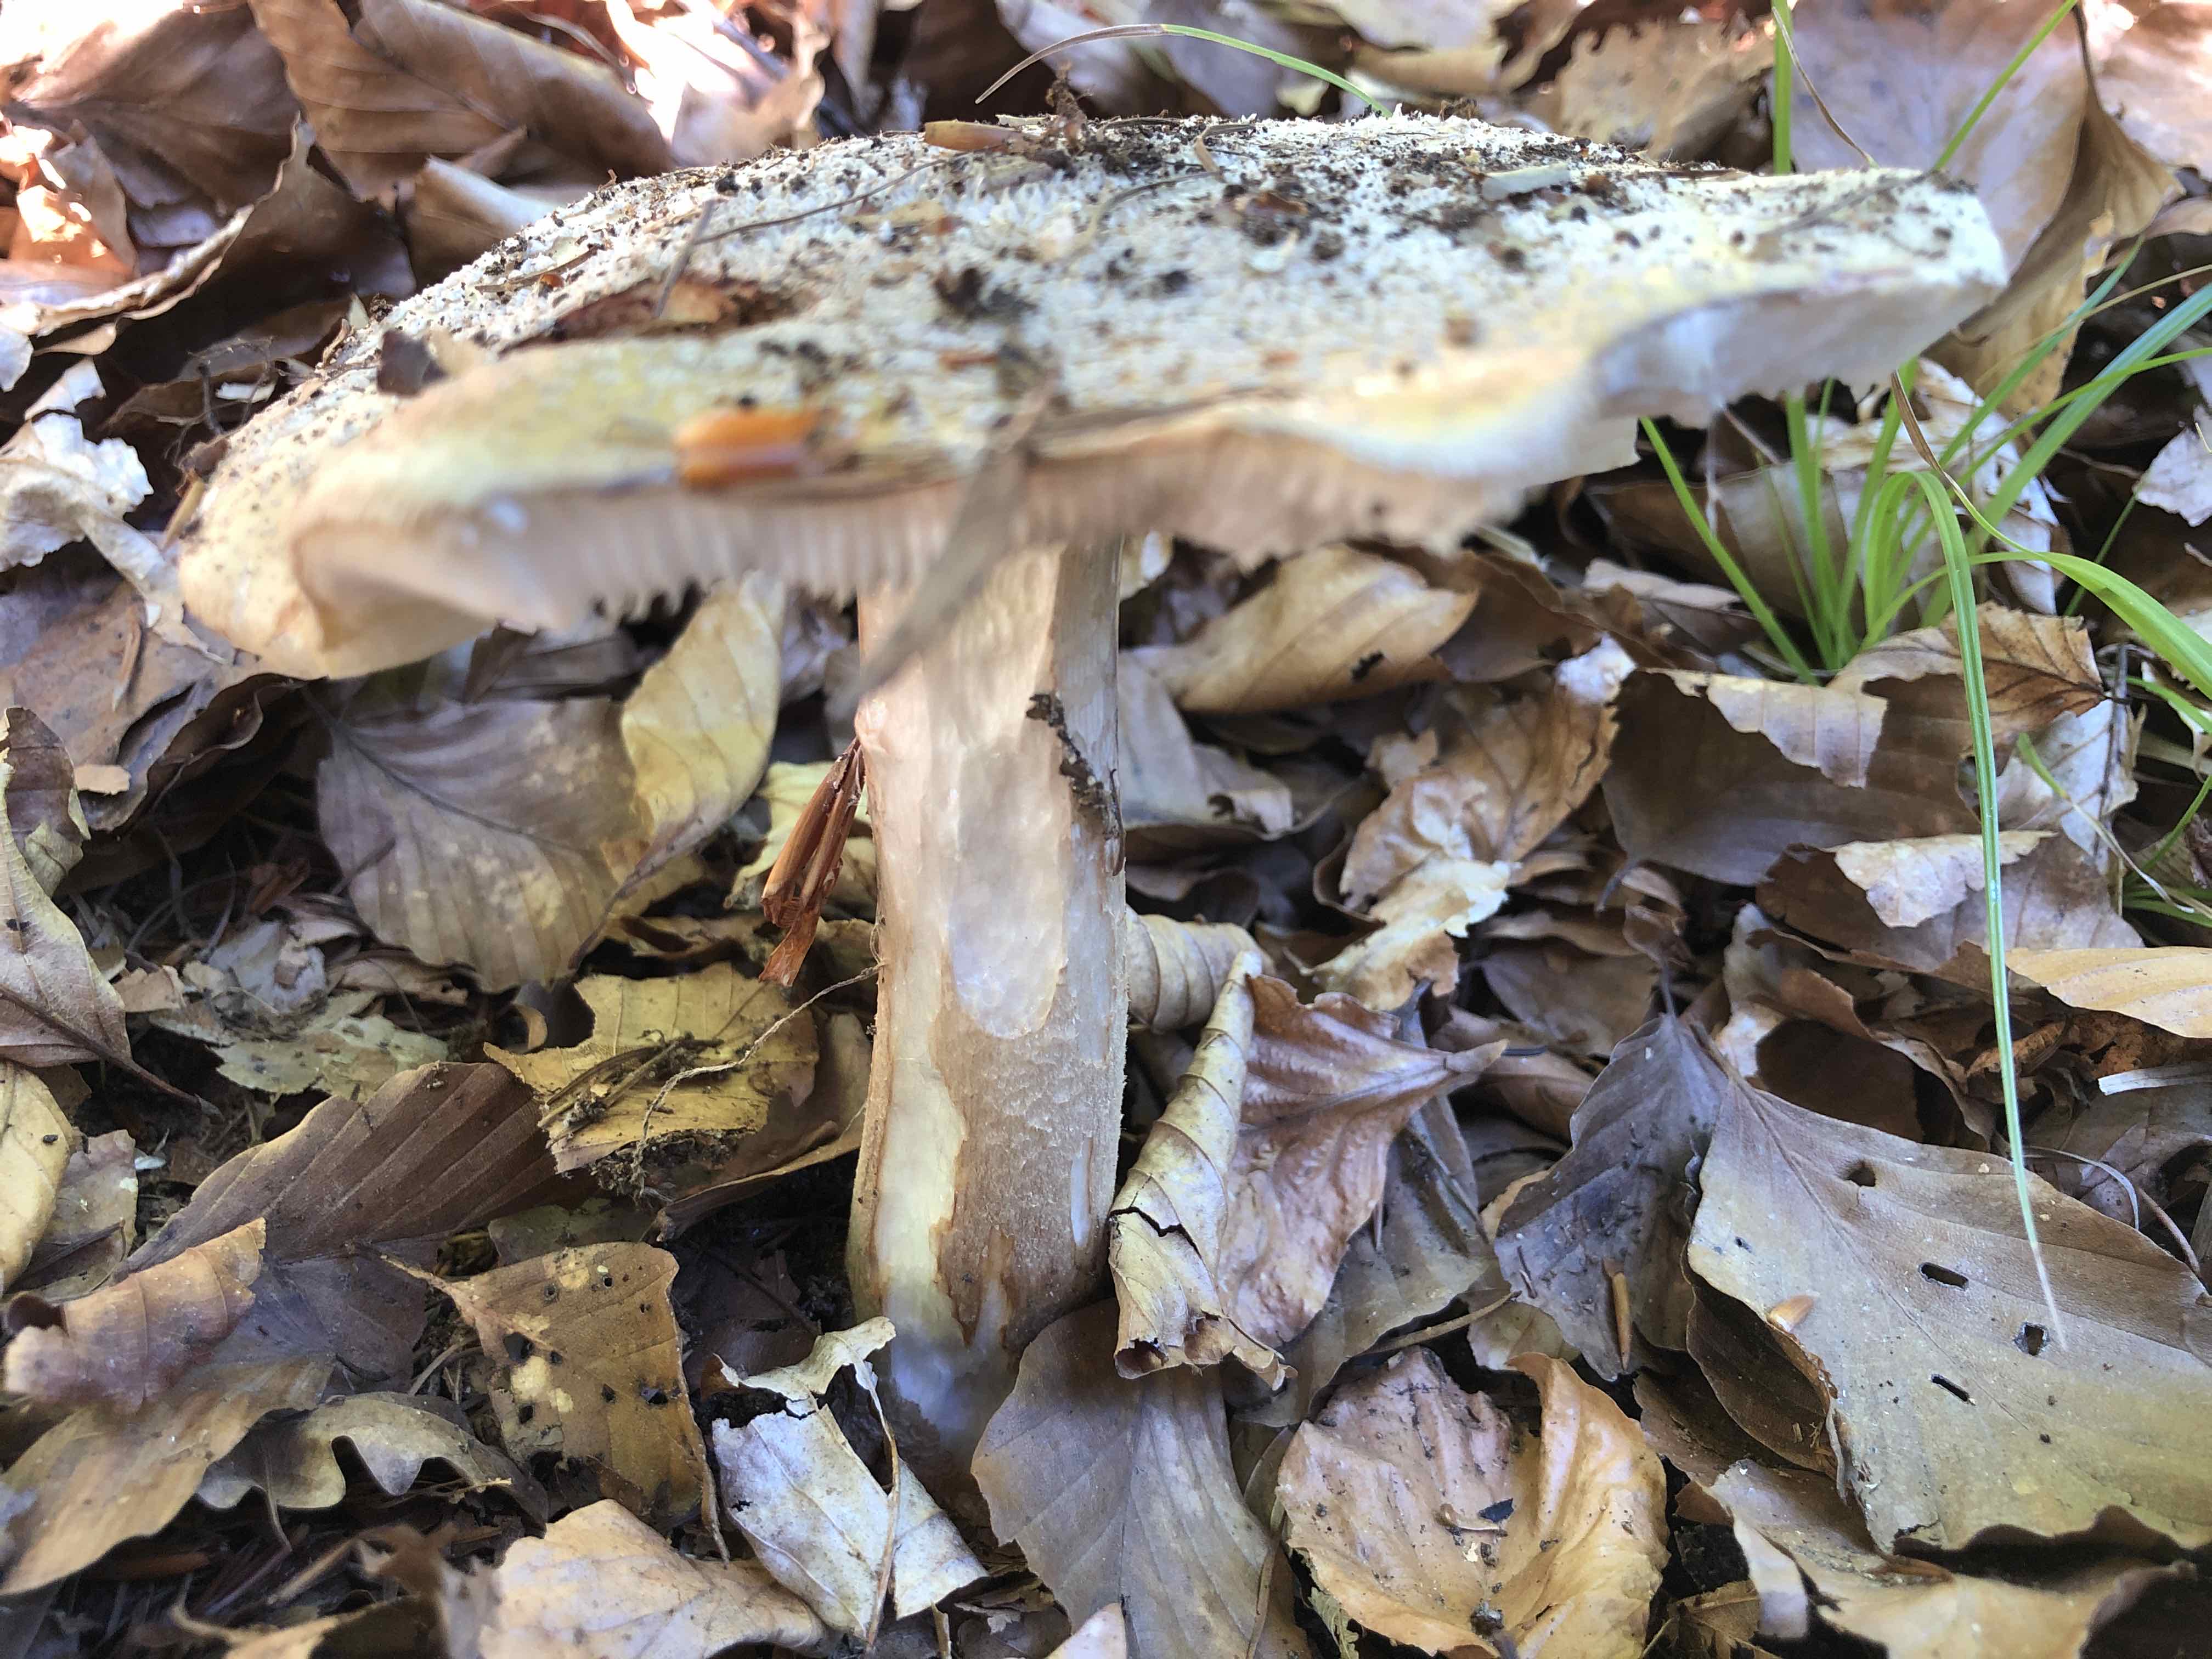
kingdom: Fungi
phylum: Basidiomycota
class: Agaricomycetes
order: Agaricales
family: Amanitaceae
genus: Amanita
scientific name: Amanita rubescens
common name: rødmende fluesvamp
